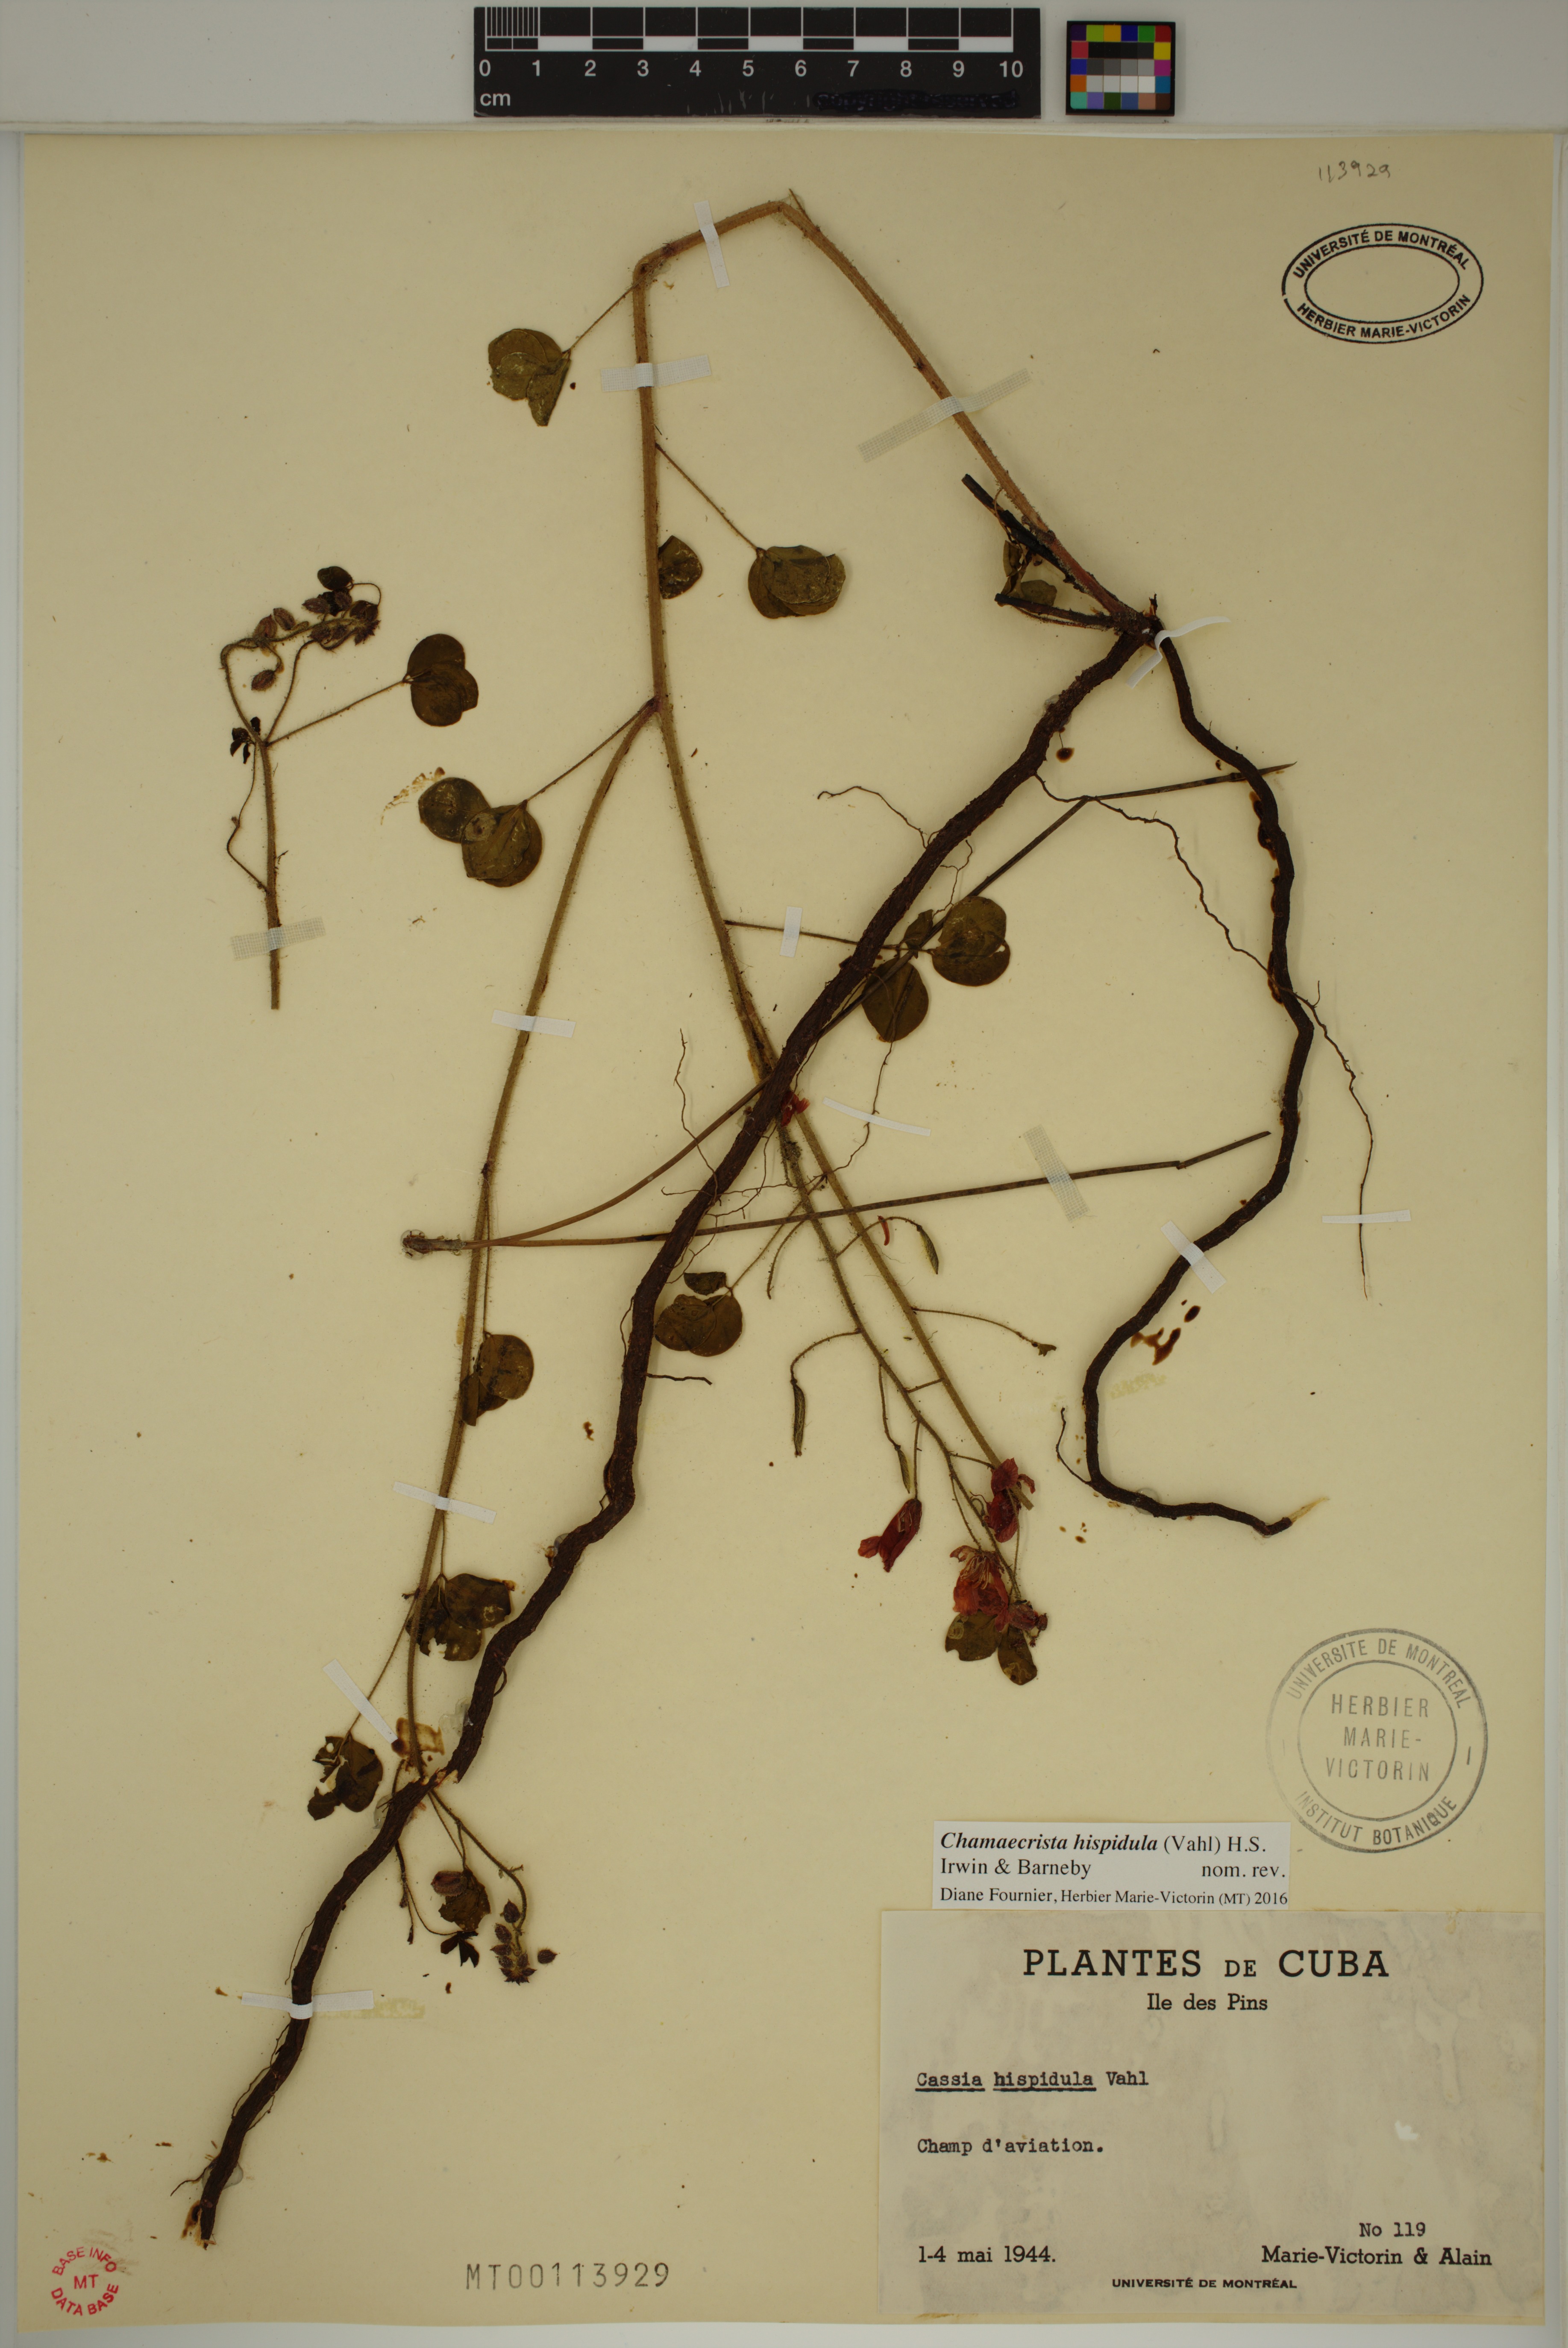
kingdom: Plantae
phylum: Tracheophyta
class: Magnoliopsida
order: Fabales
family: Fabaceae
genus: Chamaecrista
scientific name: Chamaecrista hispidula
